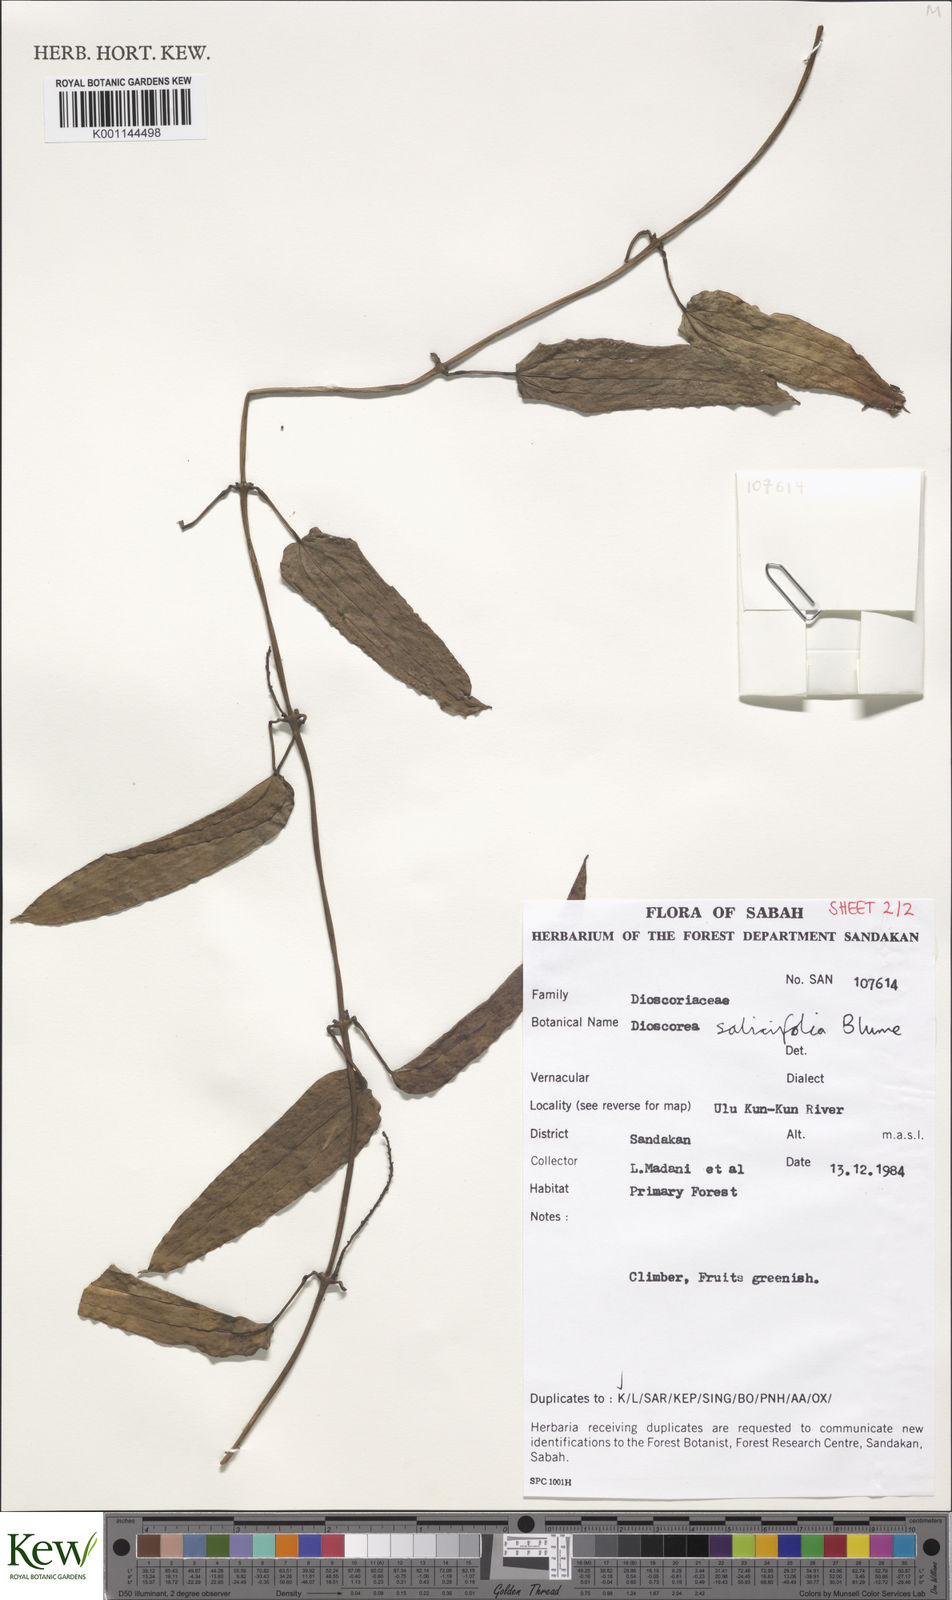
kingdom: Plantae
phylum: Tracheophyta
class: Liliopsida
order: Dioscoreales
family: Dioscoreaceae
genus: Dioscorea
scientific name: Dioscorea salicifolia
